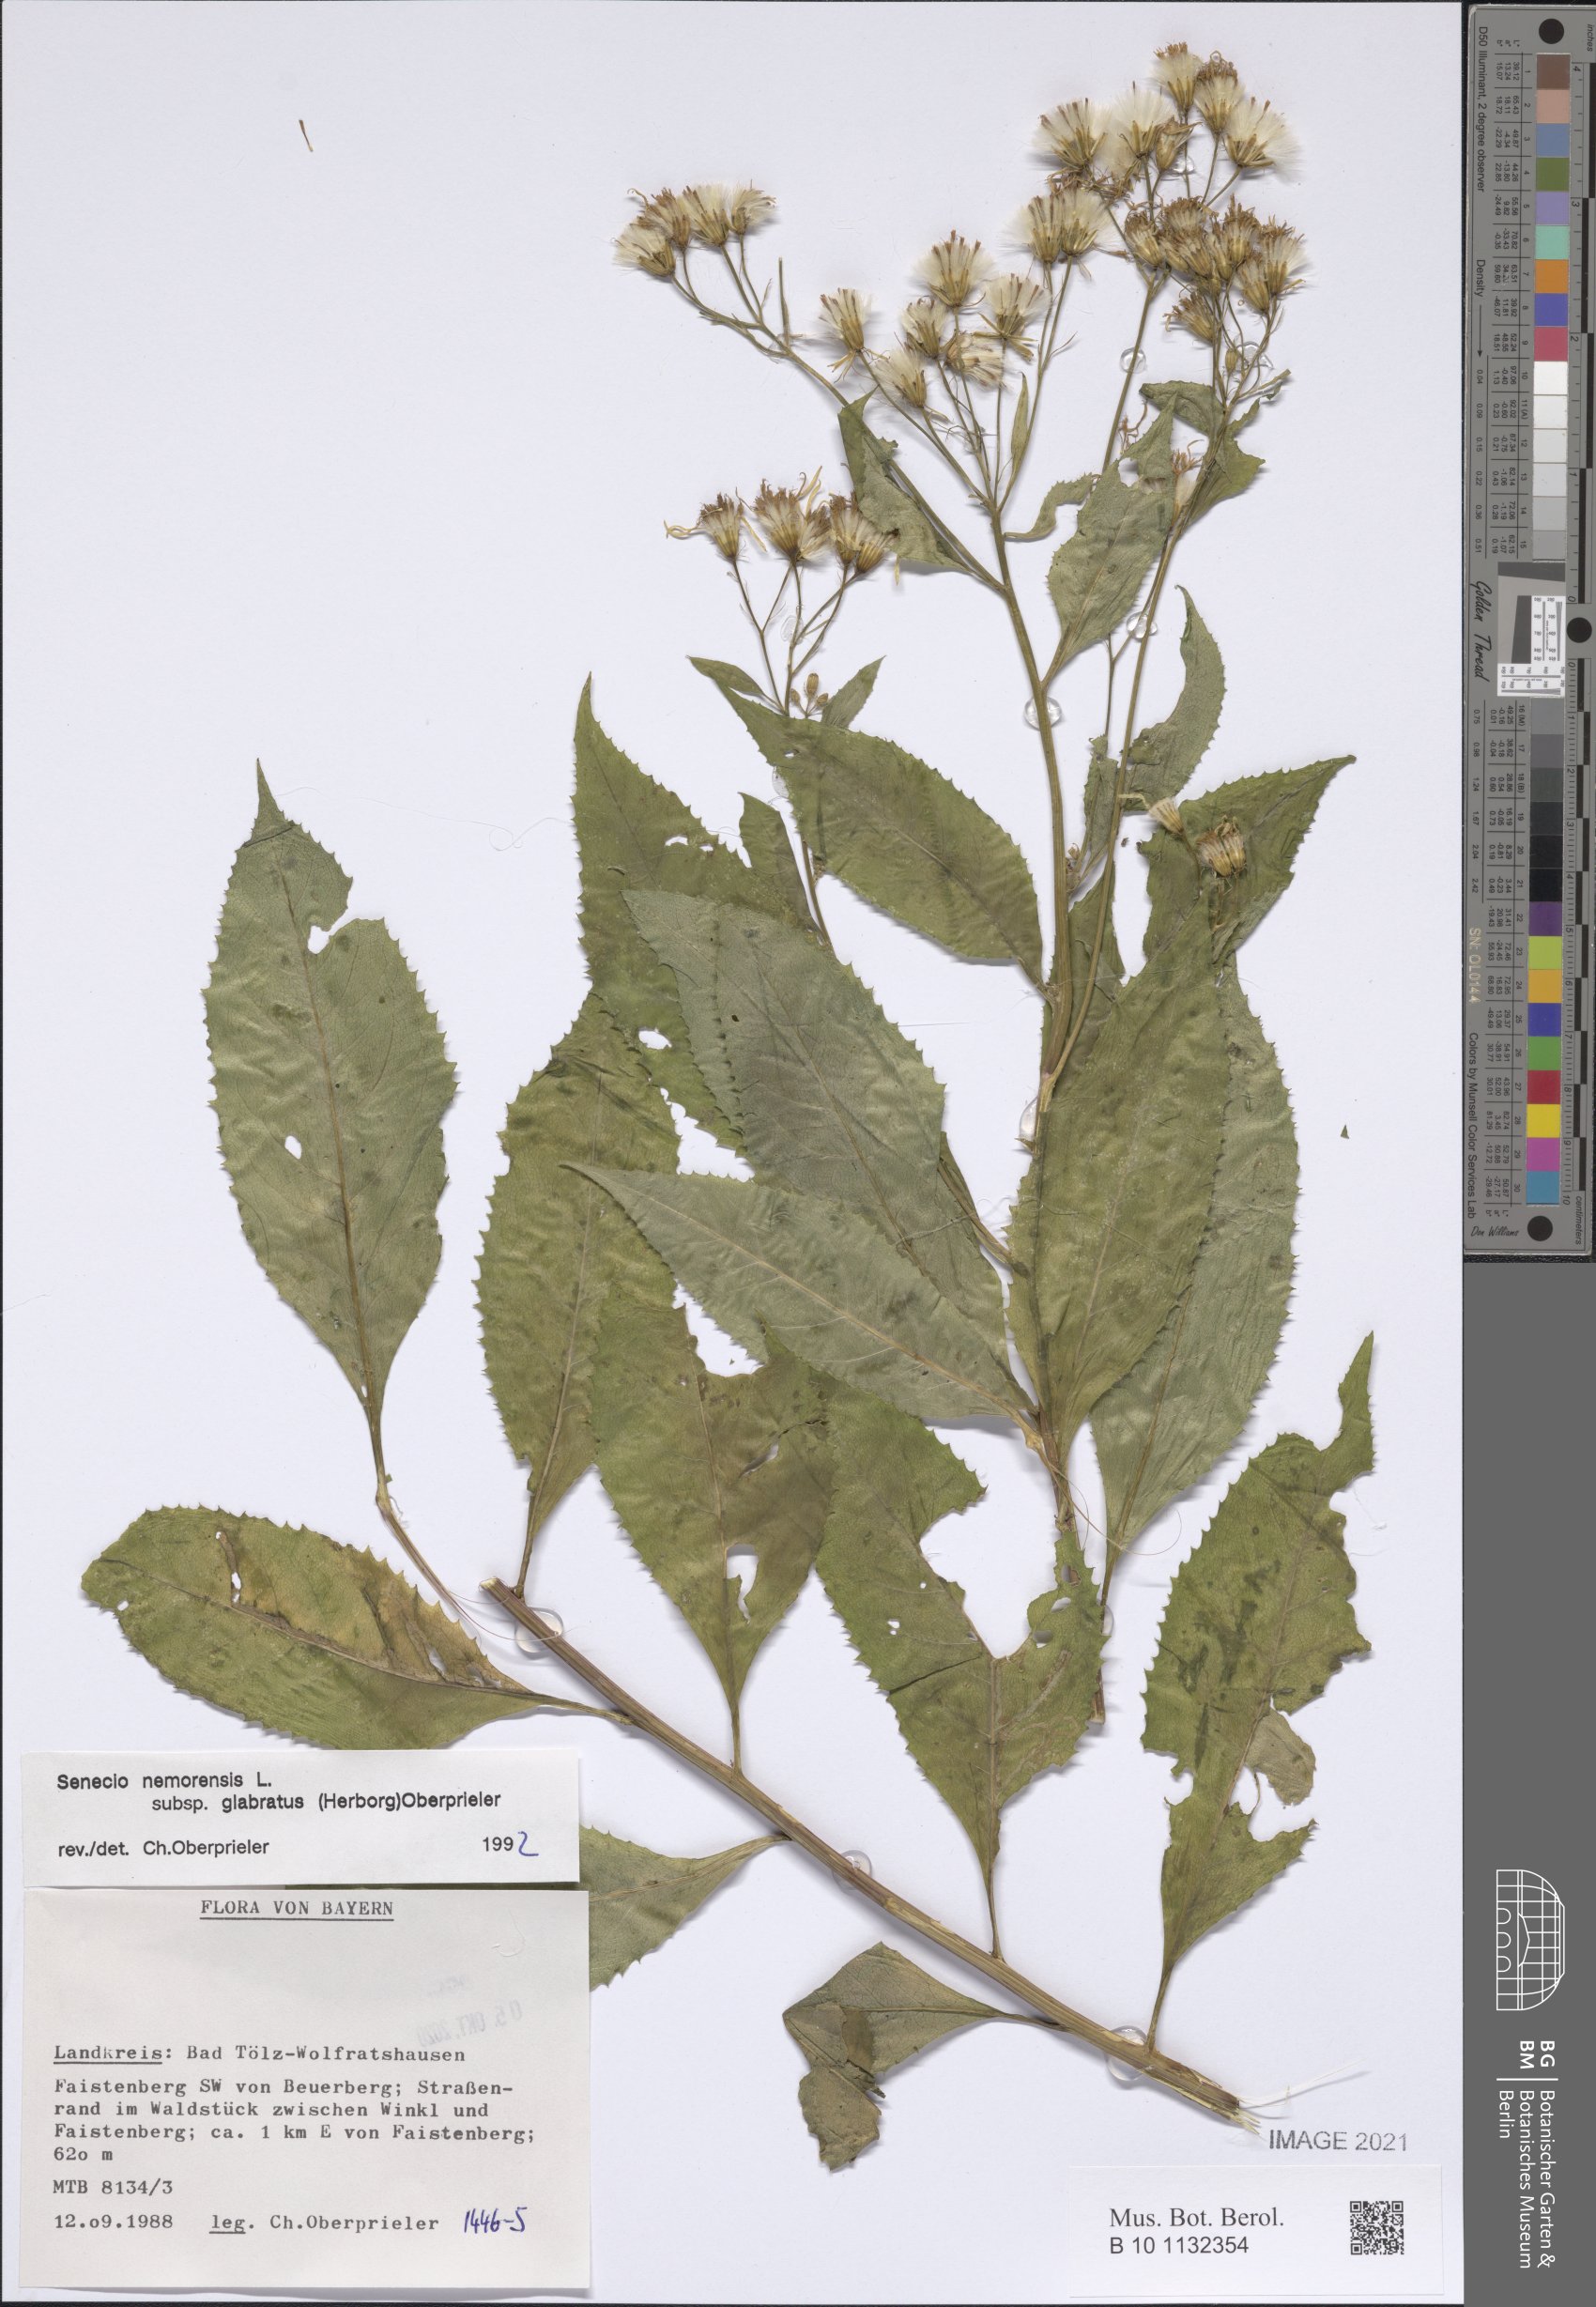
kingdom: Plantae
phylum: Tracheophyta
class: Magnoliopsida
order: Asterales
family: Asteraceae
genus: Senecio
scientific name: Senecio germanicus
